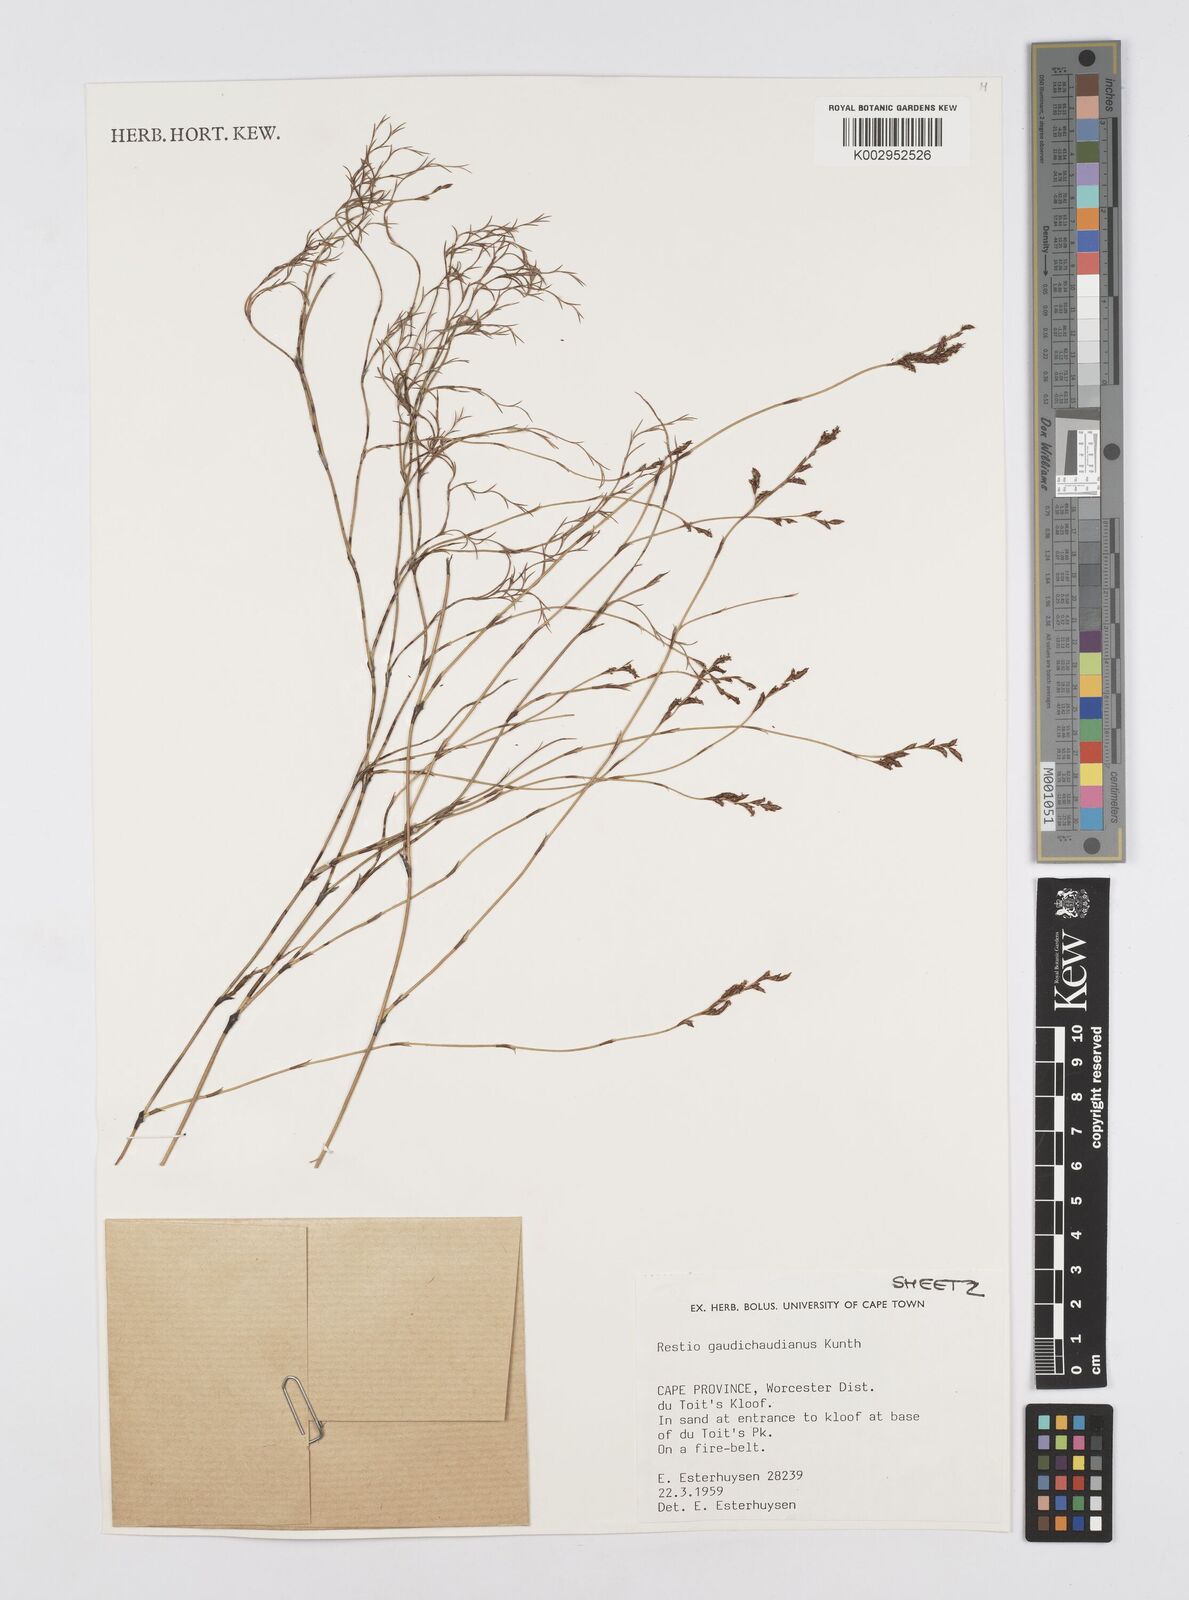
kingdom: Plantae
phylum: Tracheophyta
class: Liliopsida
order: Poales
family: Restionaceae
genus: Restio
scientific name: Restio gaudichaudianus
